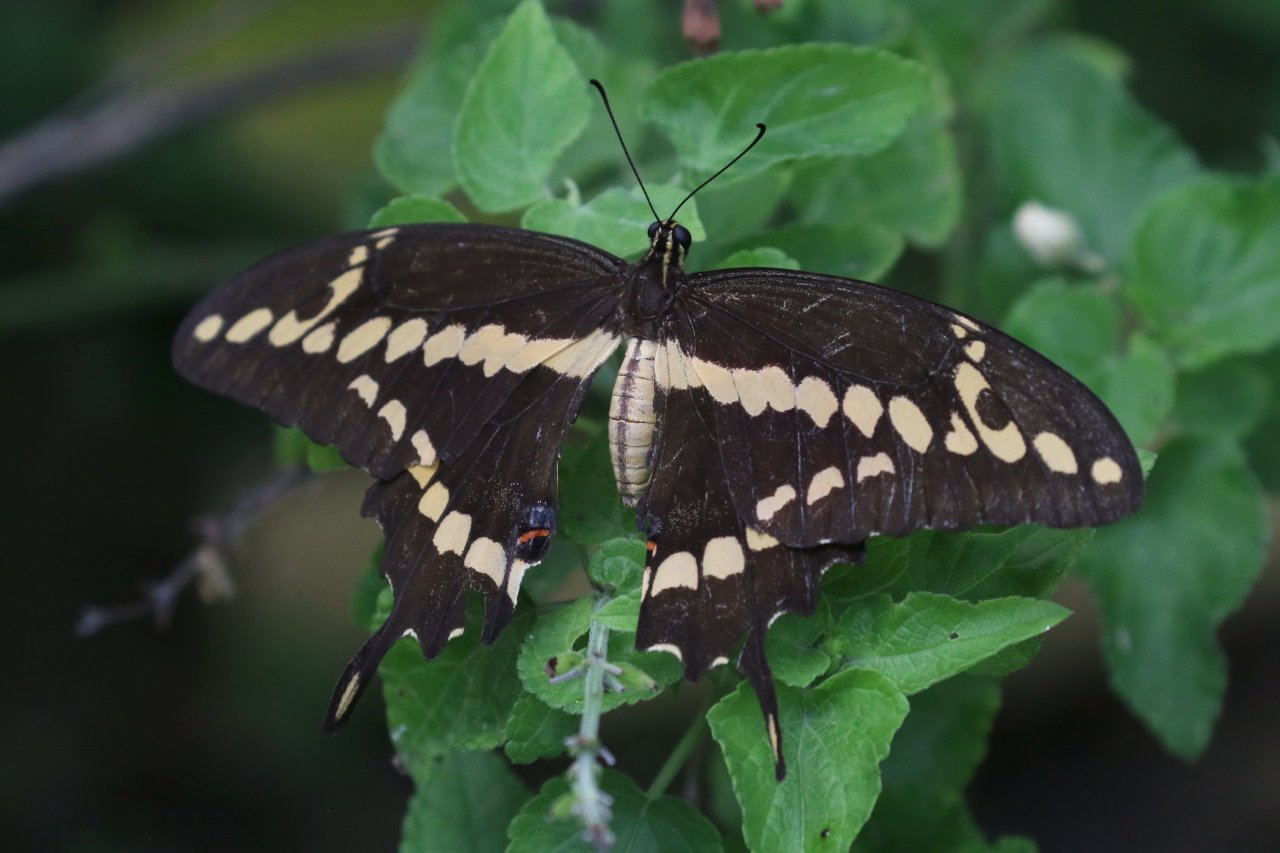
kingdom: Animalia
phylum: Arthropoda
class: Insecta
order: Lepidoptera
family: Papilionidae
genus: Papilio
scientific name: Papilio rumiko
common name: Western Giant Swallowtail
